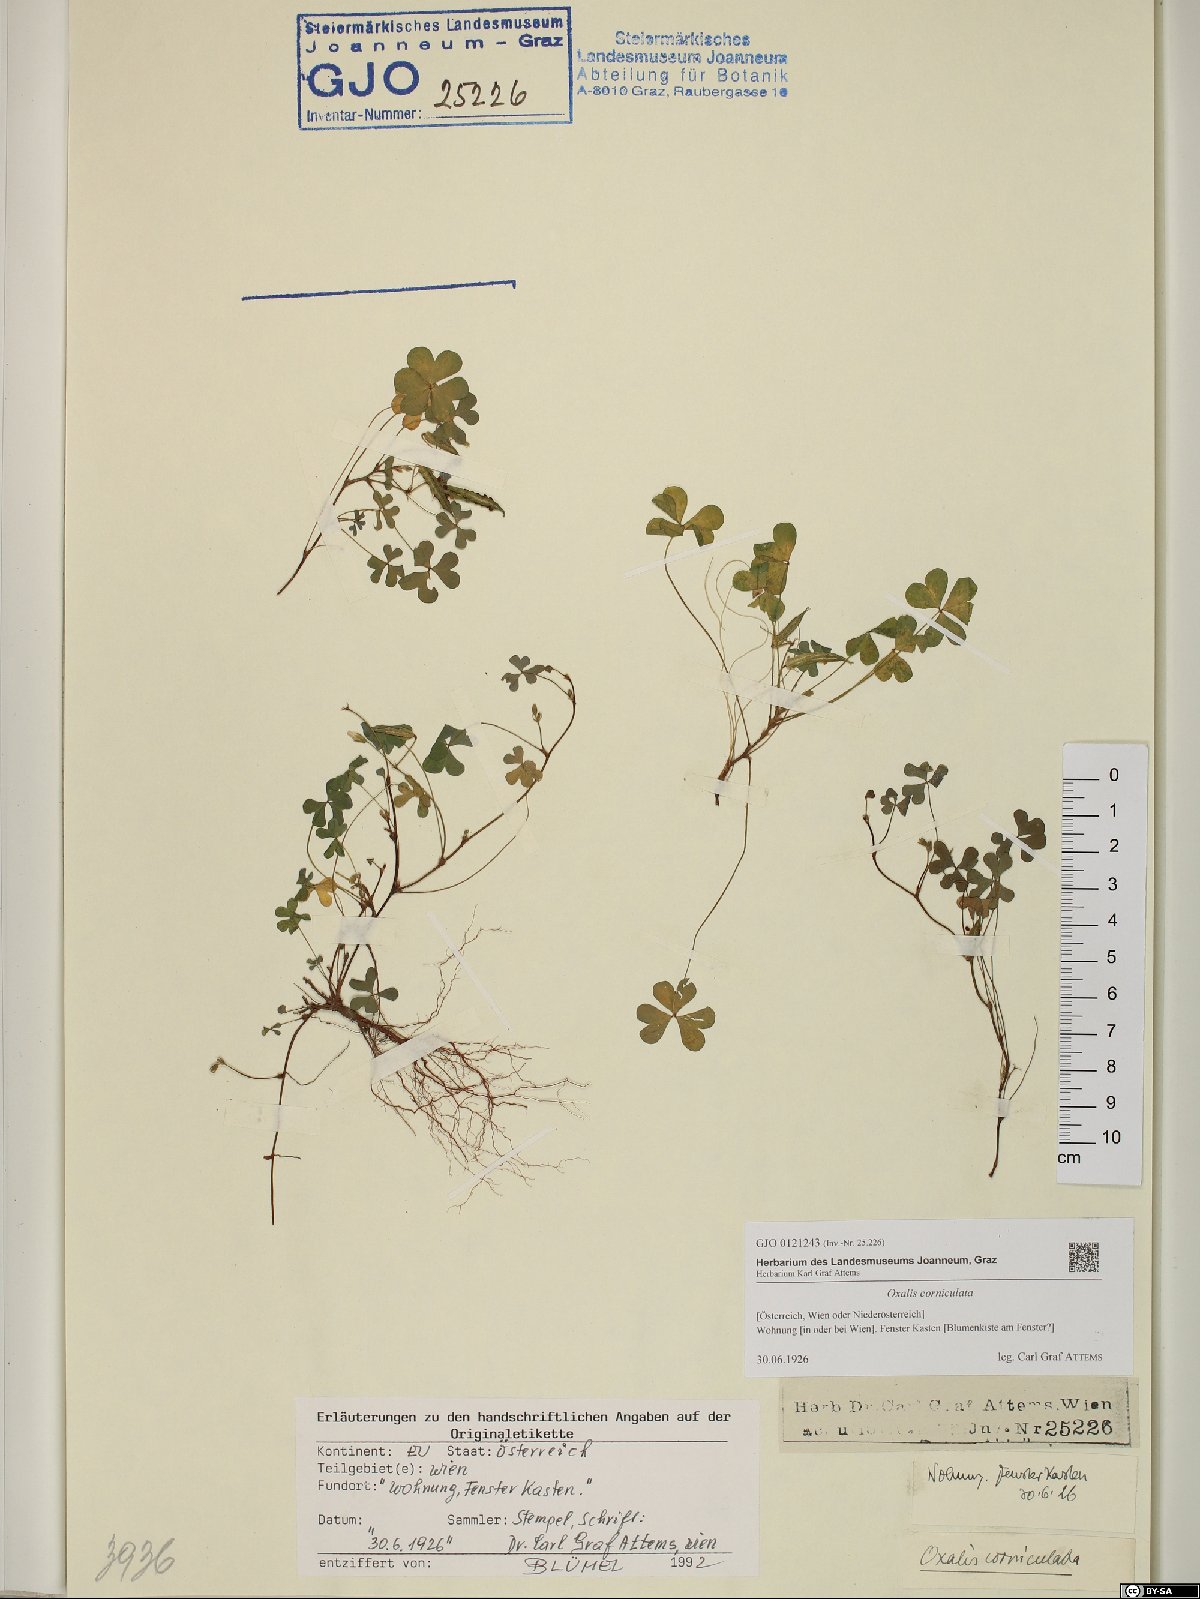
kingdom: Plantae
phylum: Tracheophyta
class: Magnoliopsida
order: Oxalidales
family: Oxalidaceae
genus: Oxalis
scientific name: Oxalis corniculata
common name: Procumbent yellow-sorrel
